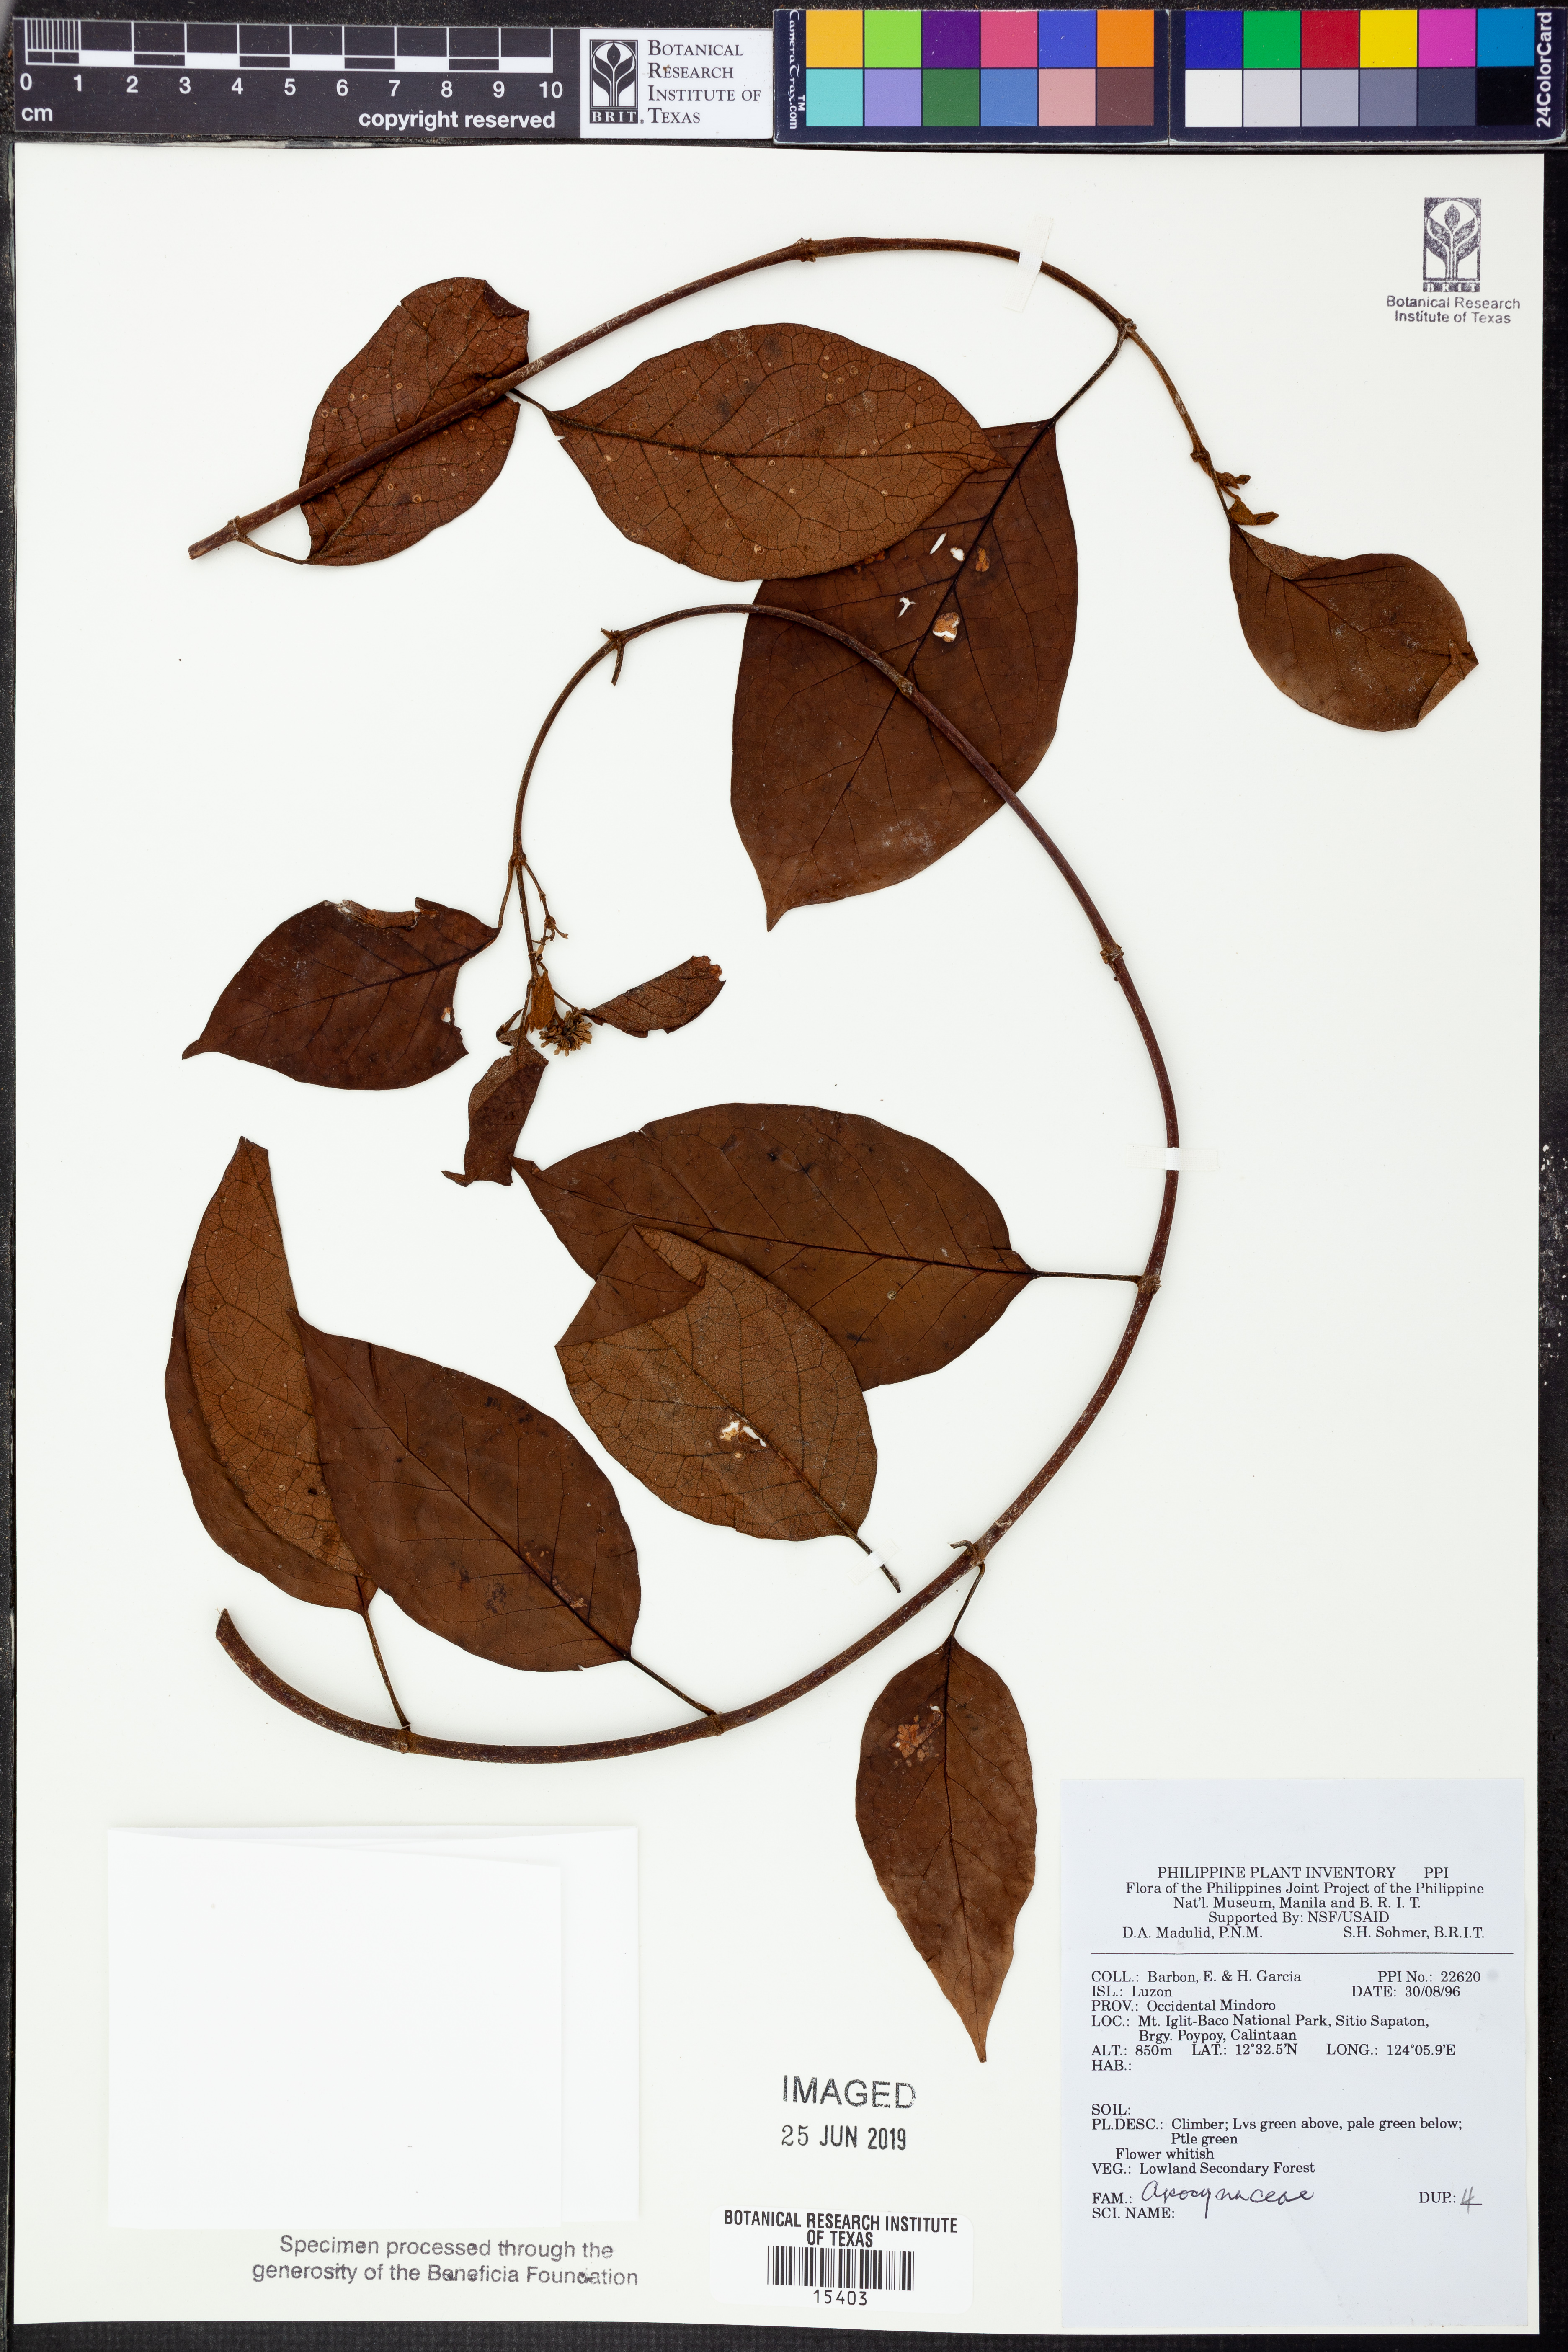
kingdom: Plantae
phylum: Tracheophyta
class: Magnoliopsida
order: Gentianales
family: Apocynaceae
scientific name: Apocynaceae
